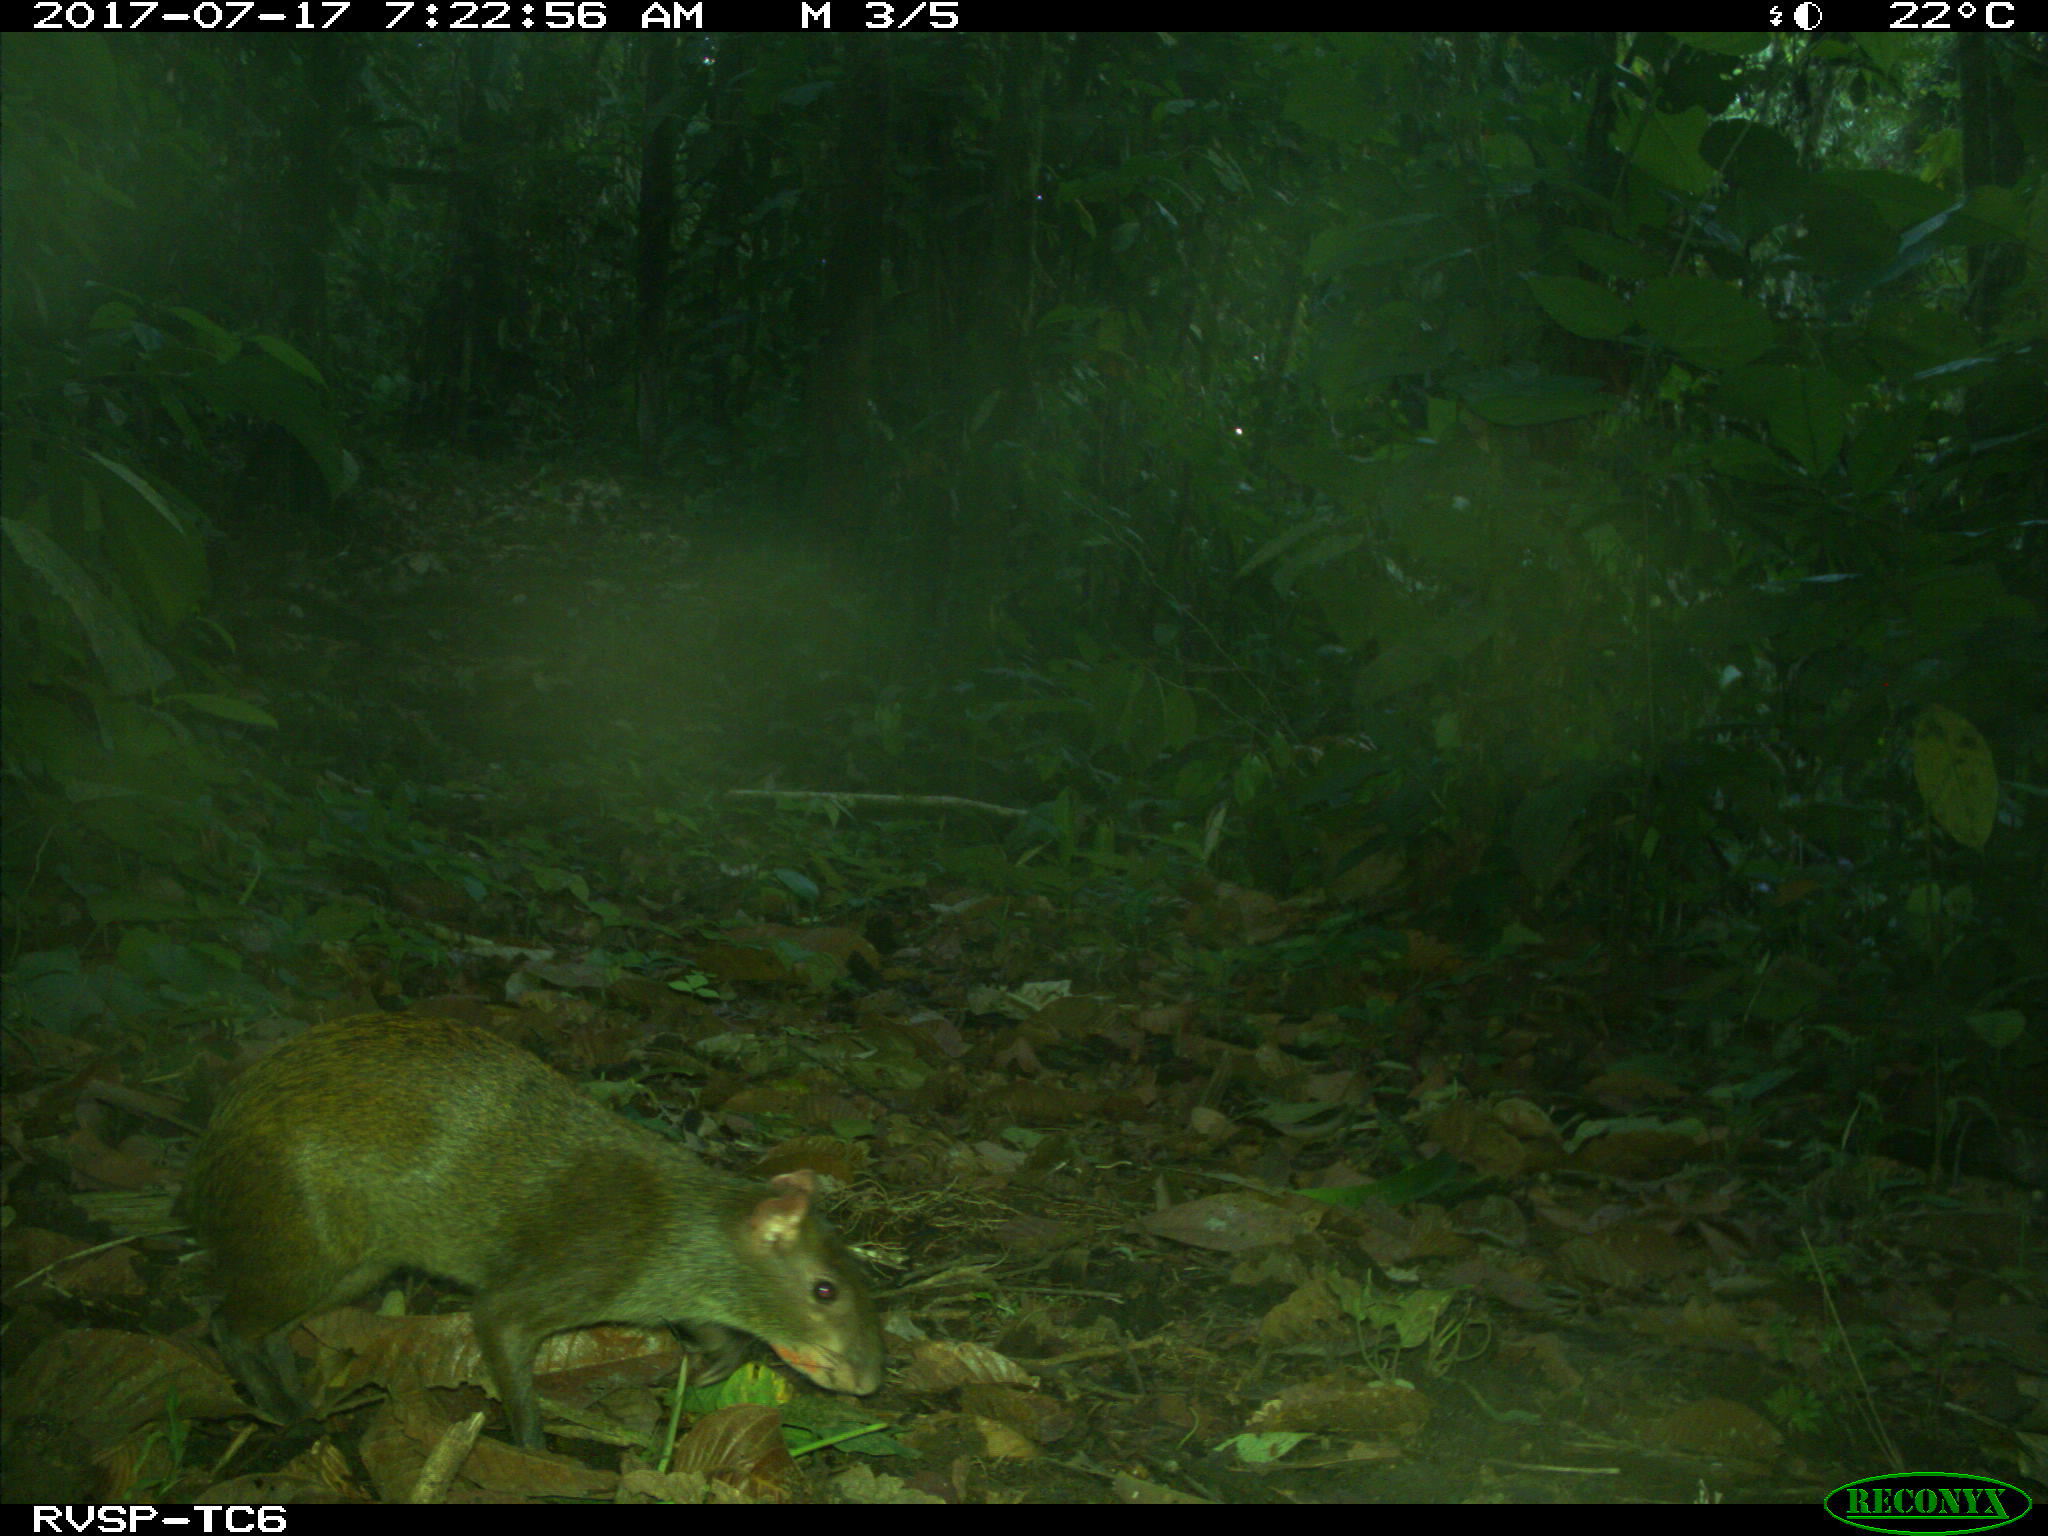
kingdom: Animalia
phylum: Chordata
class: Mammalia
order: Rodentia
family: Dasyproctidae
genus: Dasyprocta
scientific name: Dasyprocta punctata
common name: Central american agouti
